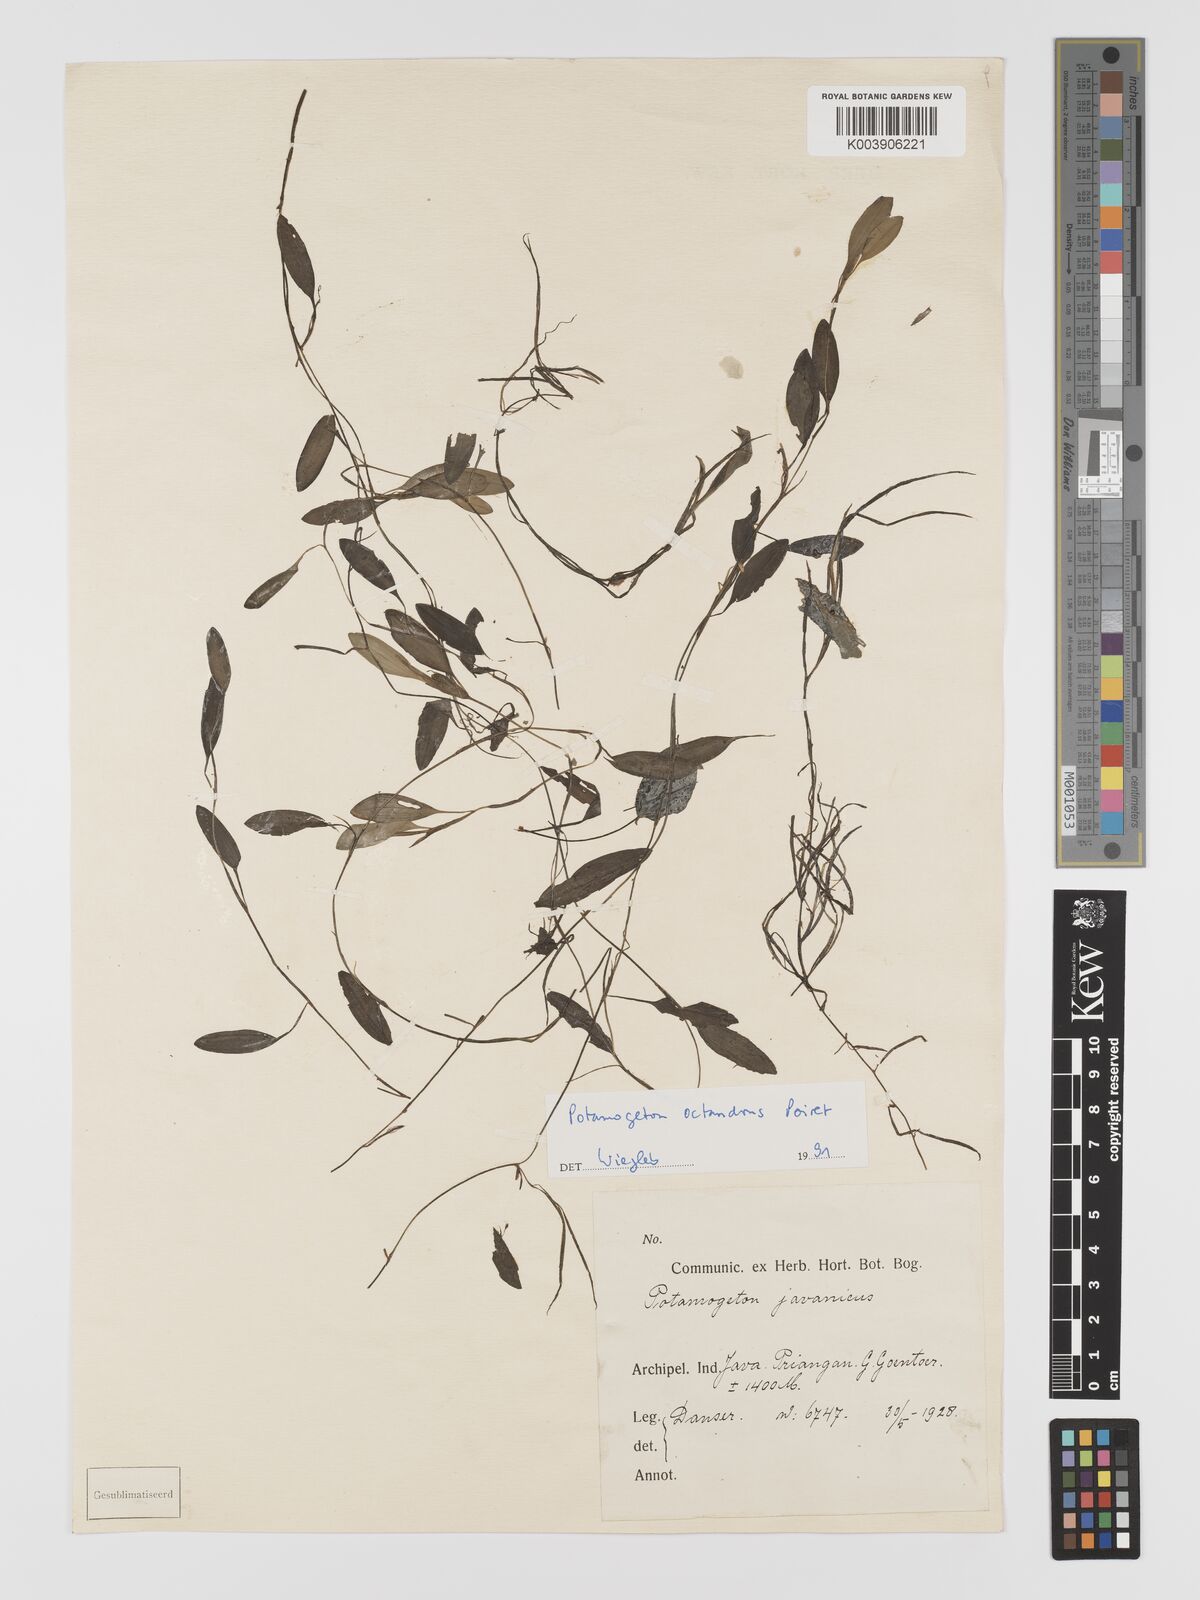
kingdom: Plantae
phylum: Tracheophyta
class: Liliopsida
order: Alismatales
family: Potamogetonaceae
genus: Potamogeton
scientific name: Potamogeton octandrus
